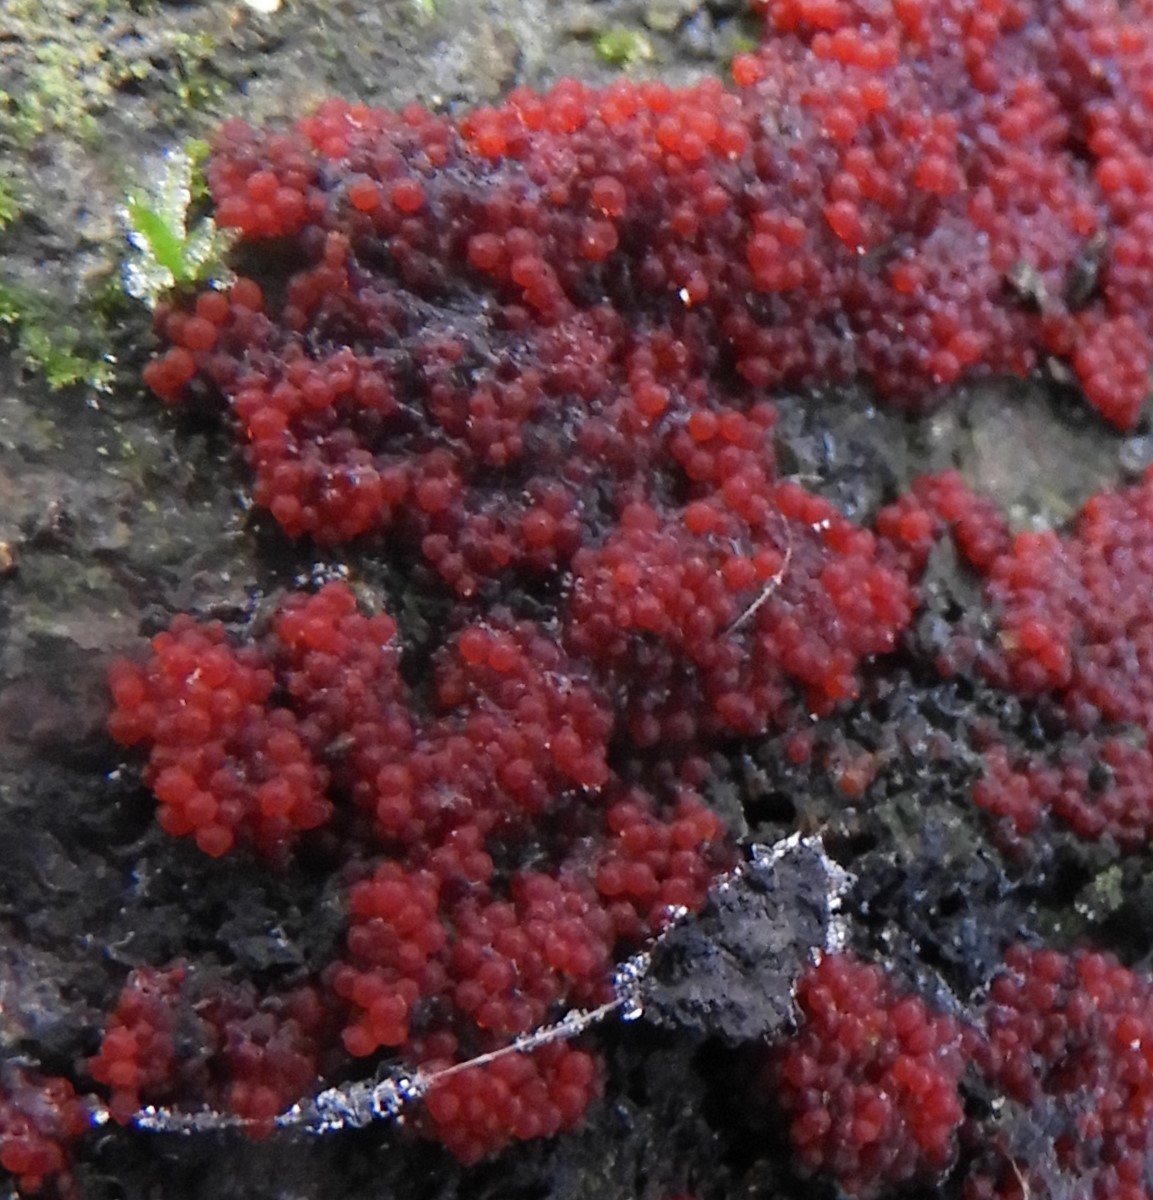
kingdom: Fungi
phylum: Ascomycota
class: Sordariomycetes
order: Hypocreales
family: Nectriaceae
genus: Neonectria
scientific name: Neonectria coccinea
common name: bøgebark-cinnobersvamp
